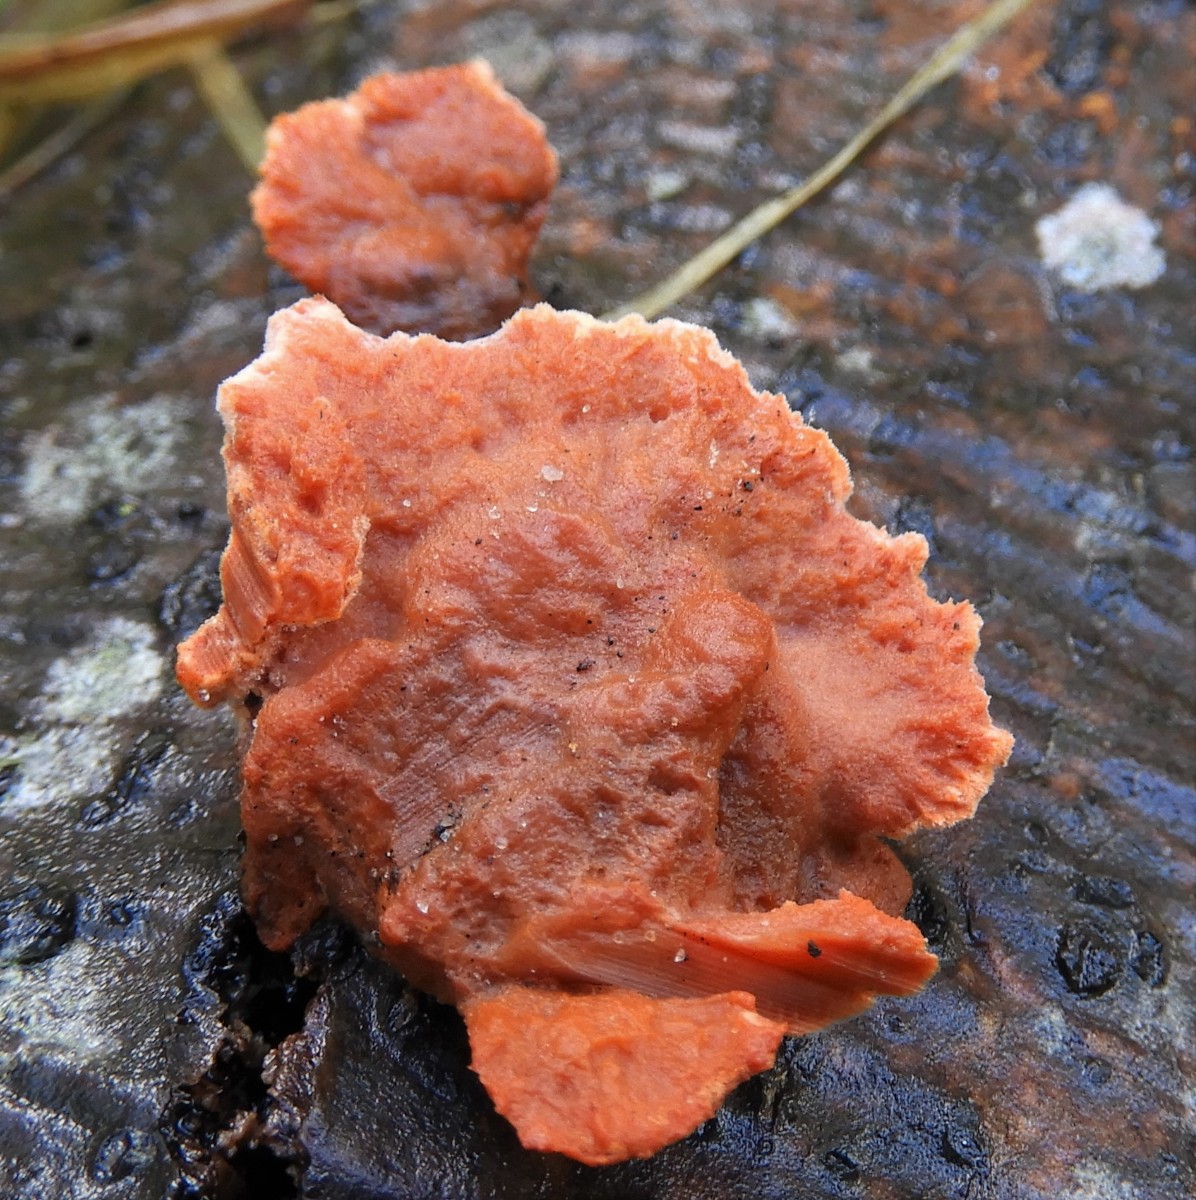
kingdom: Fungi
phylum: Basidiomycota
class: Agaricomycetes
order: Polyporales
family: Polyporaceae
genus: Trametes
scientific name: Trametes cinnabarina
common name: cinnoberporesvamp
